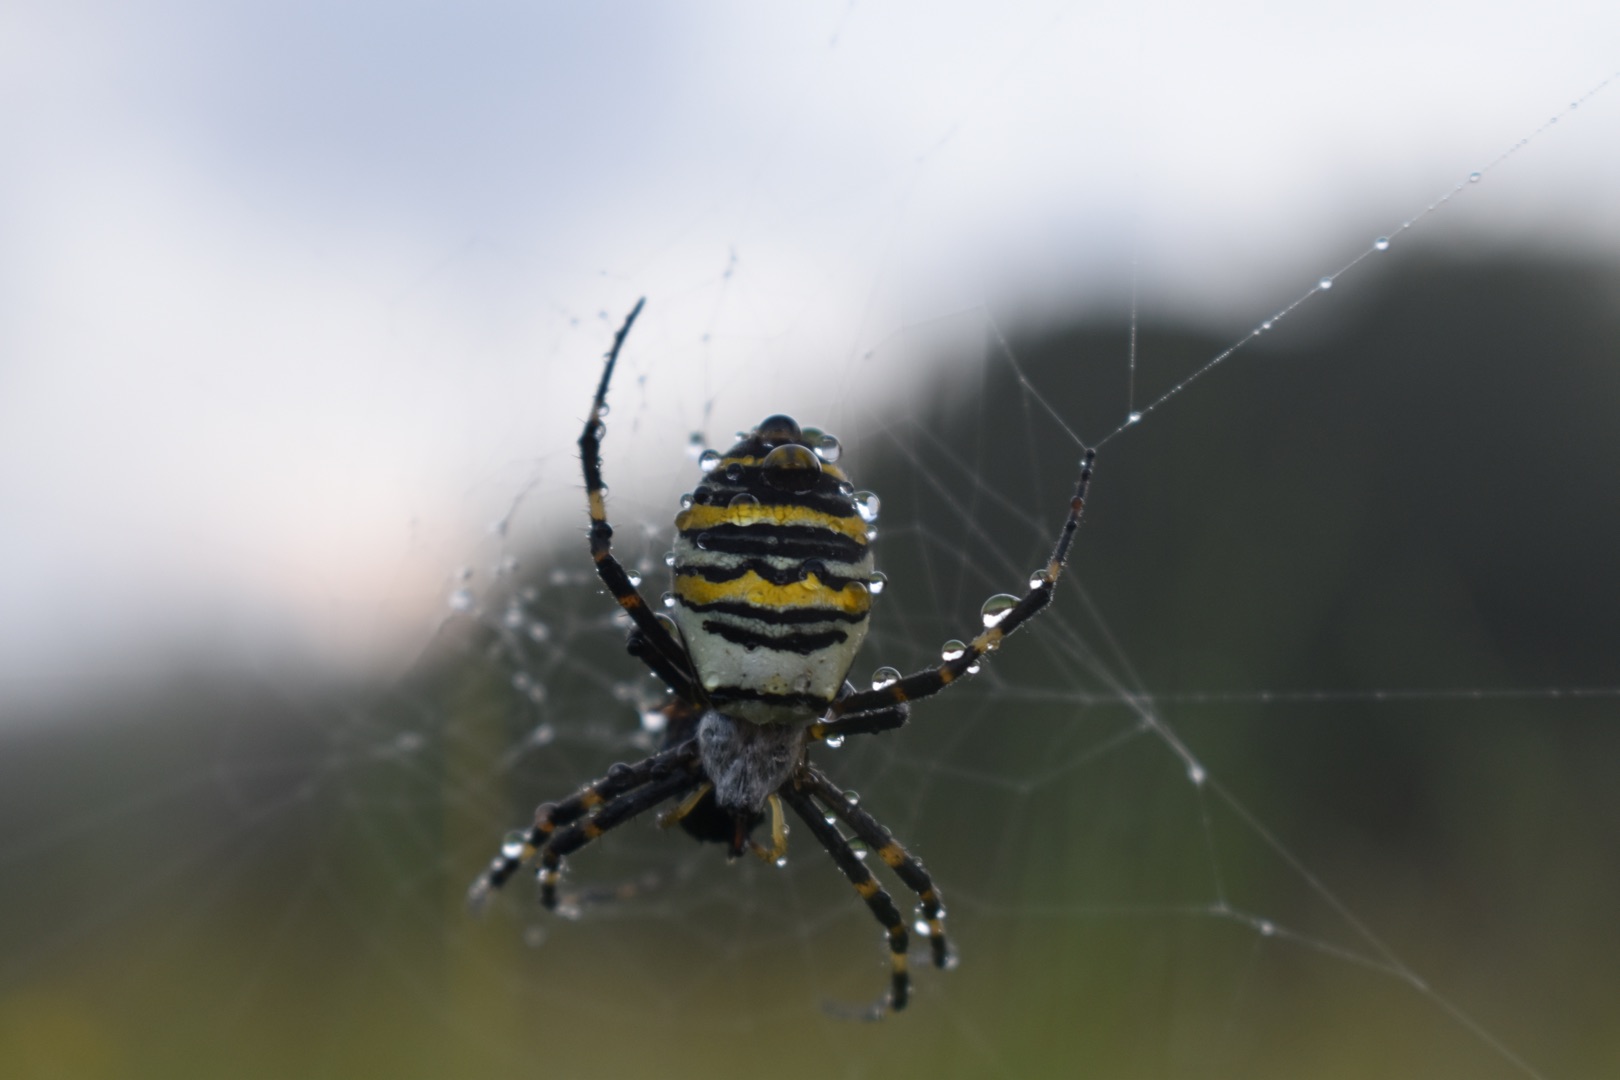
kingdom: Animalia
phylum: Arthropoda
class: Arachnida
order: Araneae
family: Araneidae
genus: Argiope
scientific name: Argiope bruennichi
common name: Hvepseedderkop
